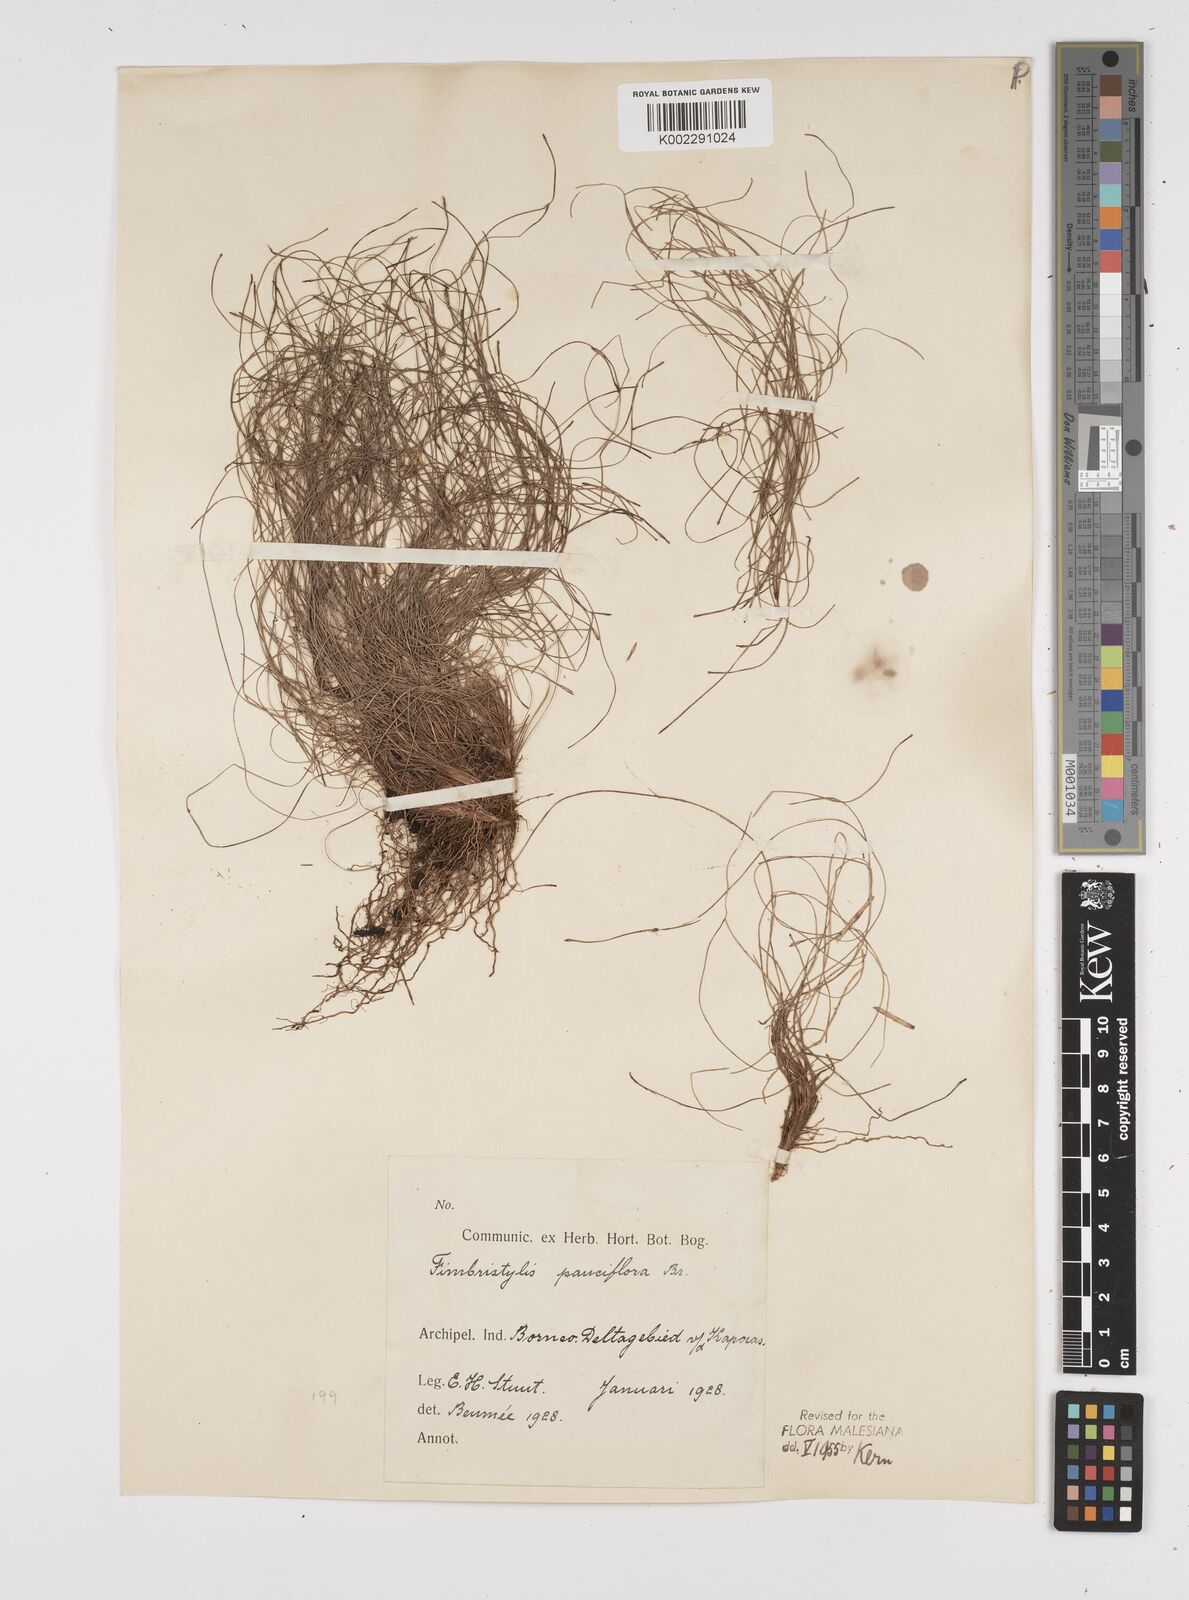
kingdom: Plantae
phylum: Tracheophyta
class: Liliopsida
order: Poales
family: Cyperaceae
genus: Fimbristylis
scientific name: Fimbristylis pauciflora
